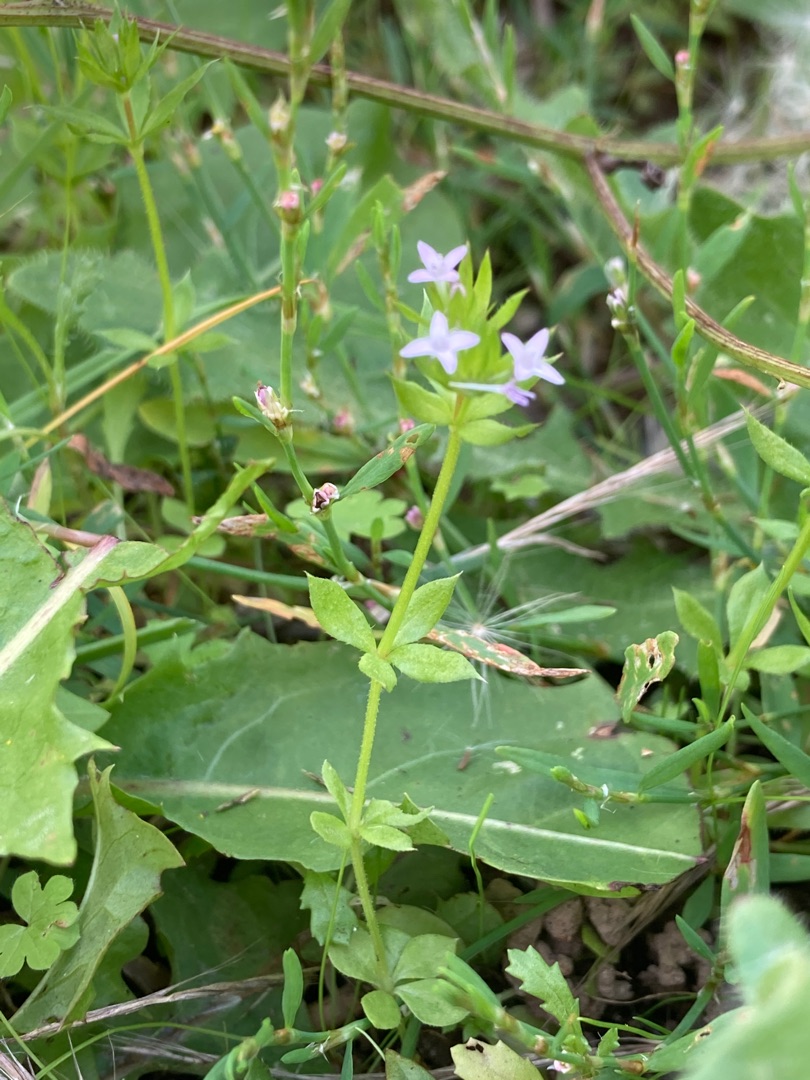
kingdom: Plantae
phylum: Tracheophyta
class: Magnoliopsida
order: Gentianales
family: Rubiaceae
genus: Sherardia
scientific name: Sherardia arvensis
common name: Blåstjerne
